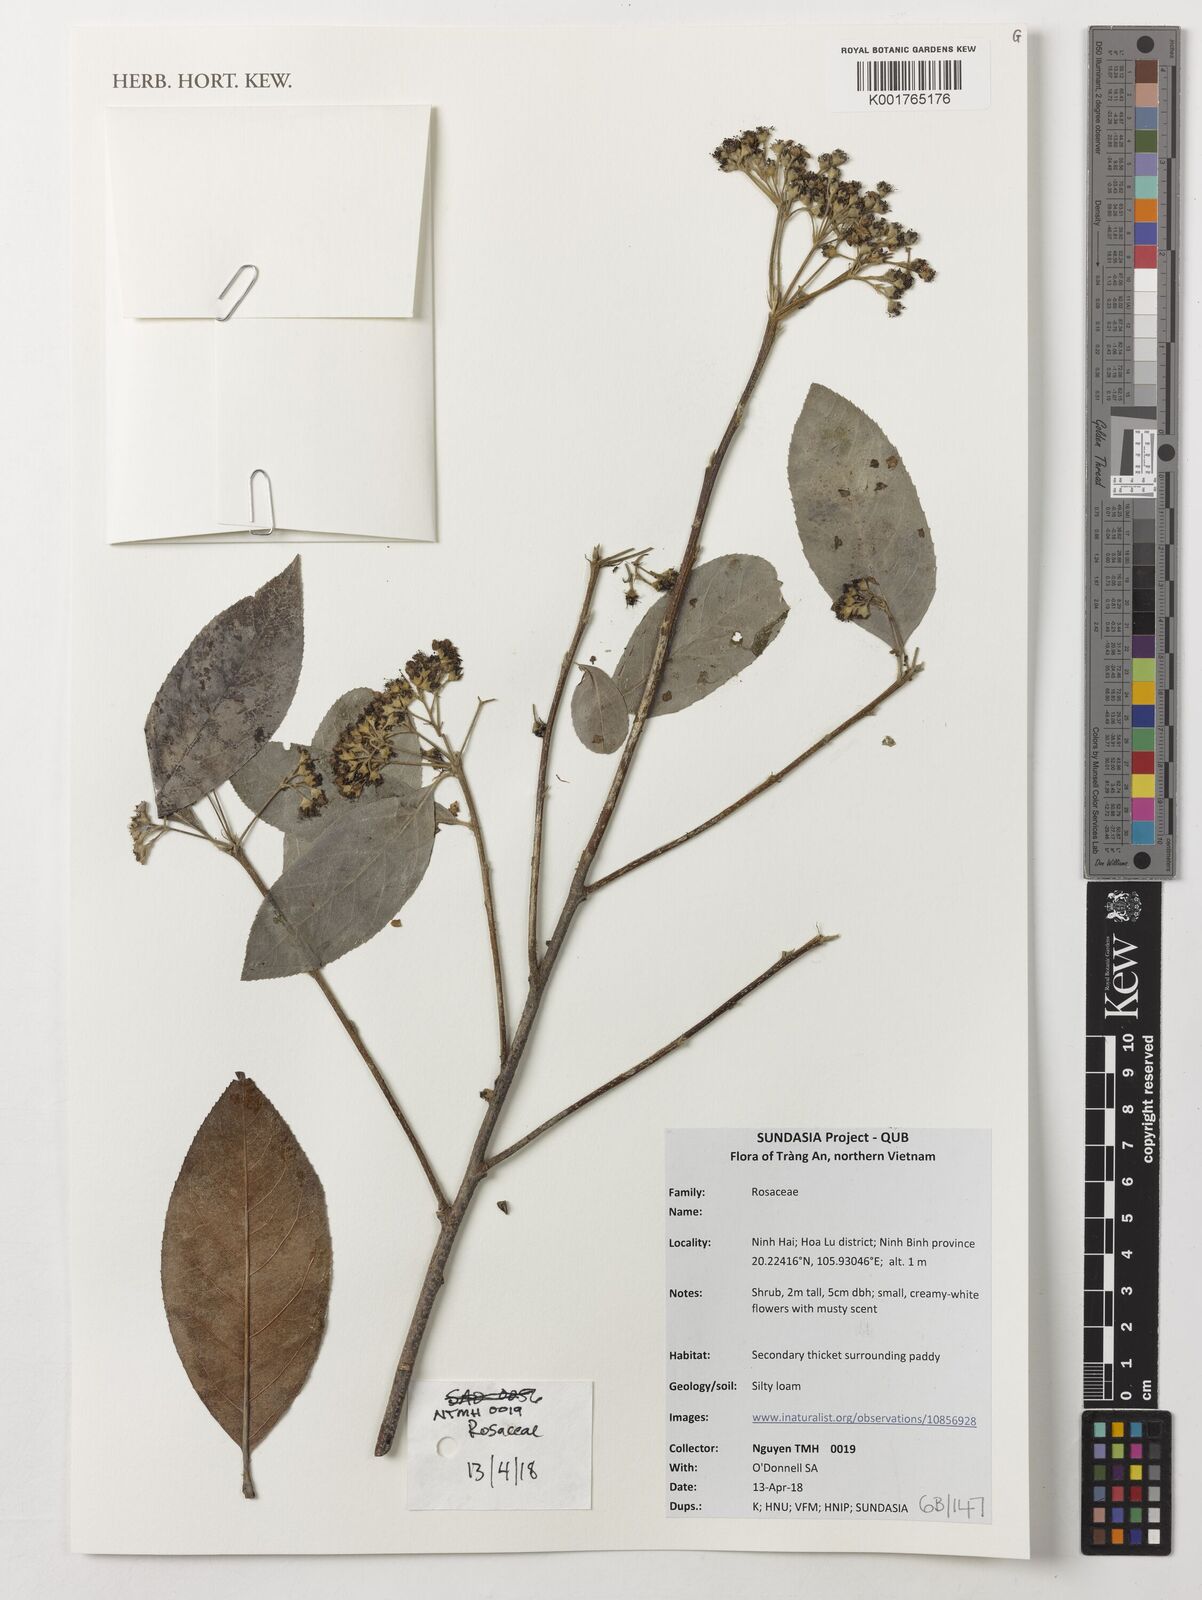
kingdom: Plantae
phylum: Tracheophyta
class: Magnoliopsida
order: Rosales
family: Rosaceae
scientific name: Rosaceae
